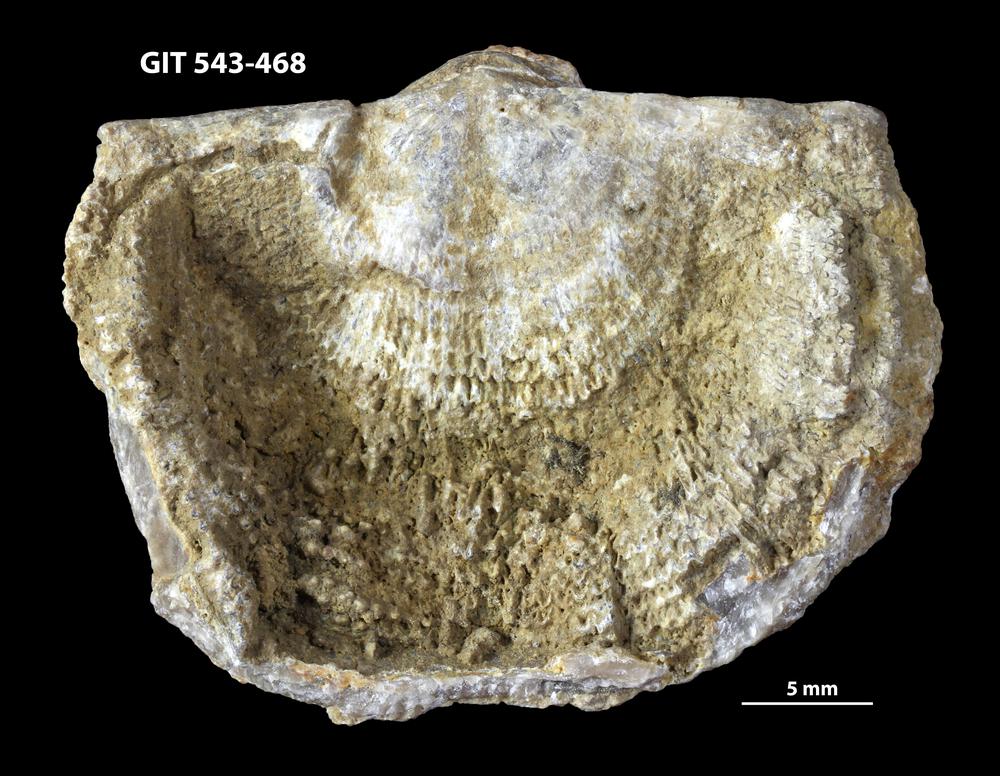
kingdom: Animalia
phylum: Brachiopoda
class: Rhynchonellata
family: Clitambonitidae
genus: Clitambonites
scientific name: Clitambonites
